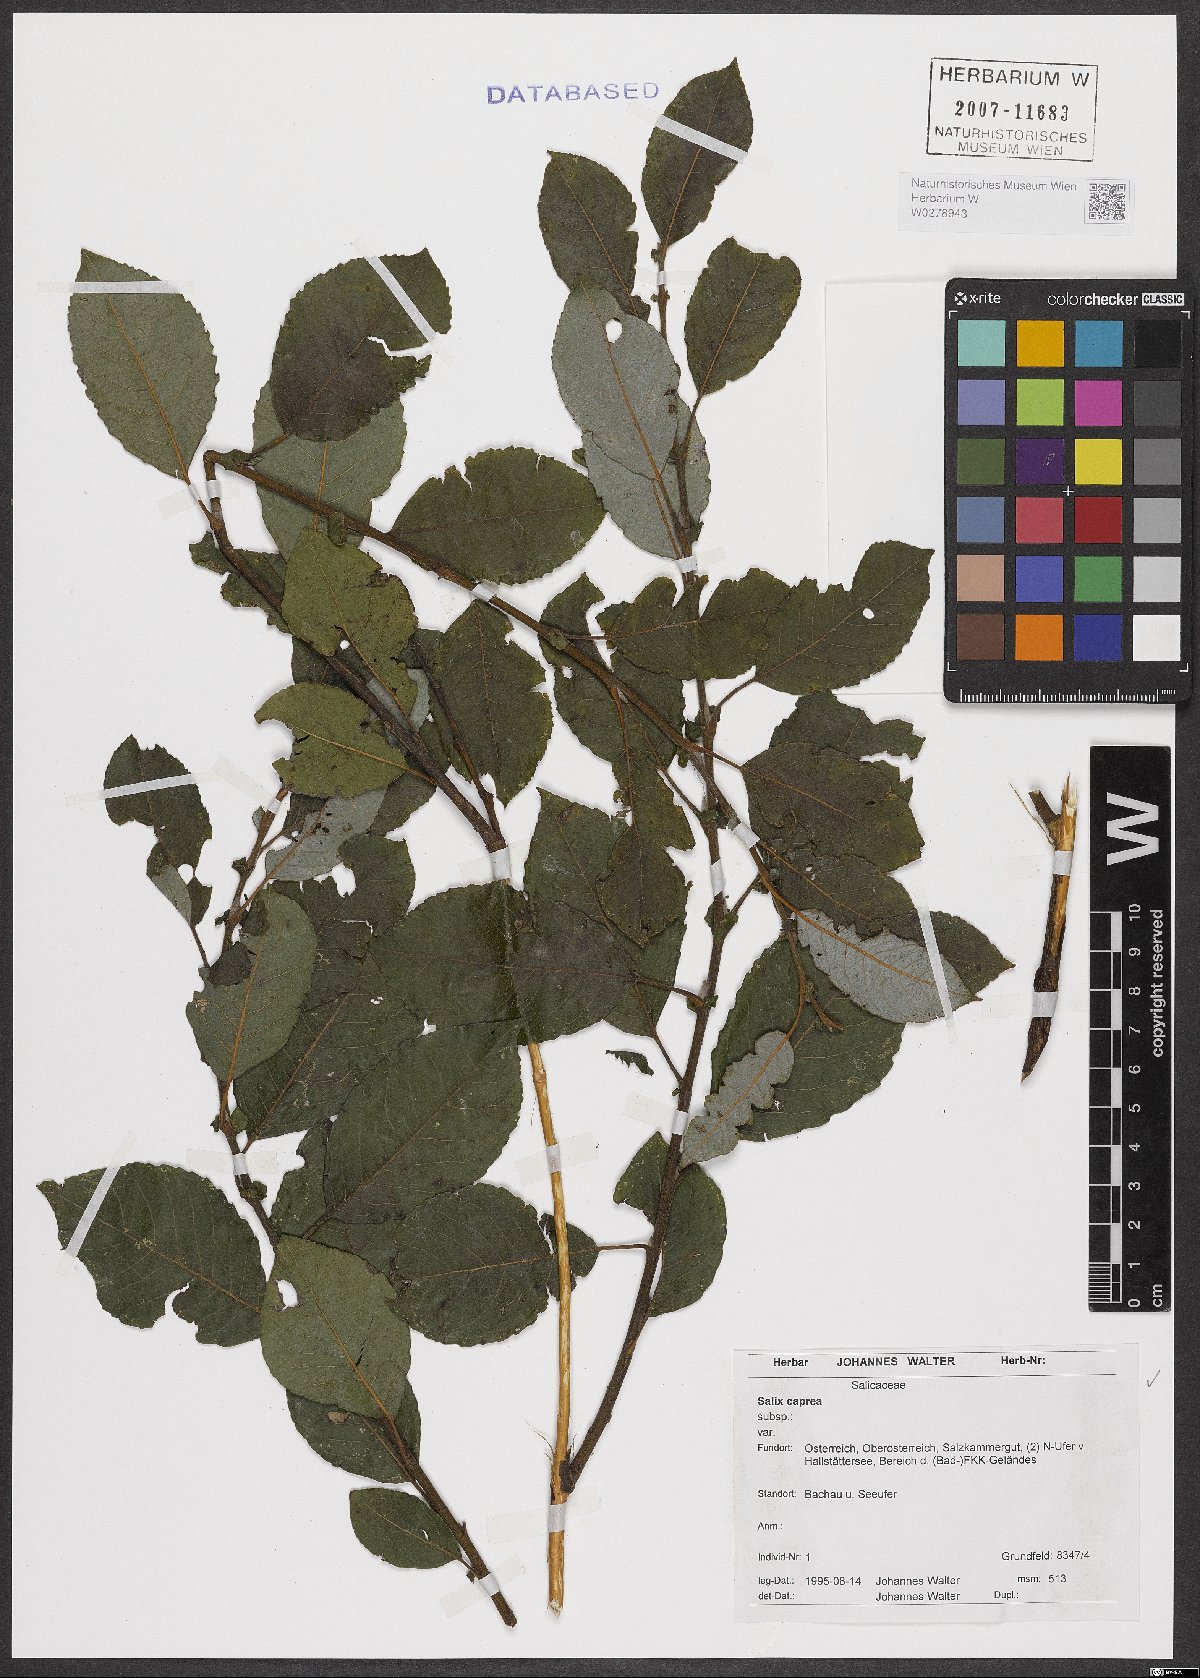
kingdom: Plantae
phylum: Tracheophyta
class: Magnoliopsida
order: Malpighiales
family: Salicaceae
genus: Salix
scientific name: Salix caprea
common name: Goat willow
